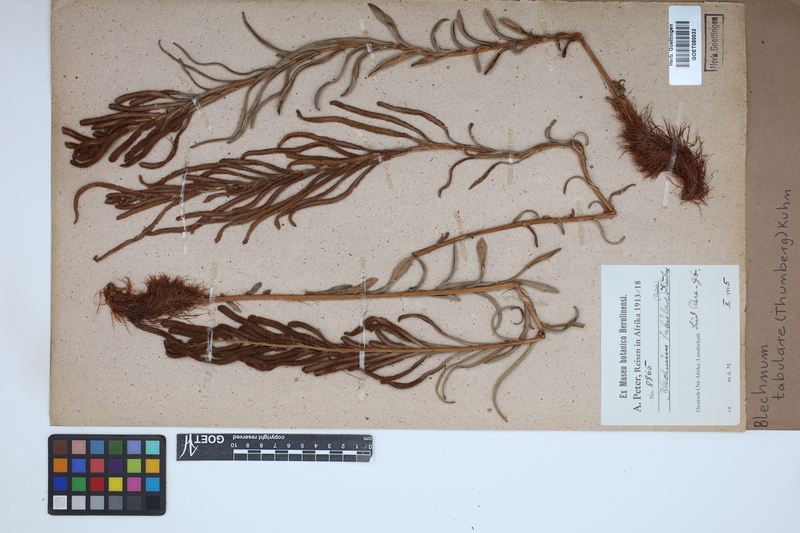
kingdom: Plantae
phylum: Tracheophyta
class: Polypodiopsida
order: Polypodiales
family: Blechnaceae
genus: Lomariocycas
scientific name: Lomariocycas tabularis
